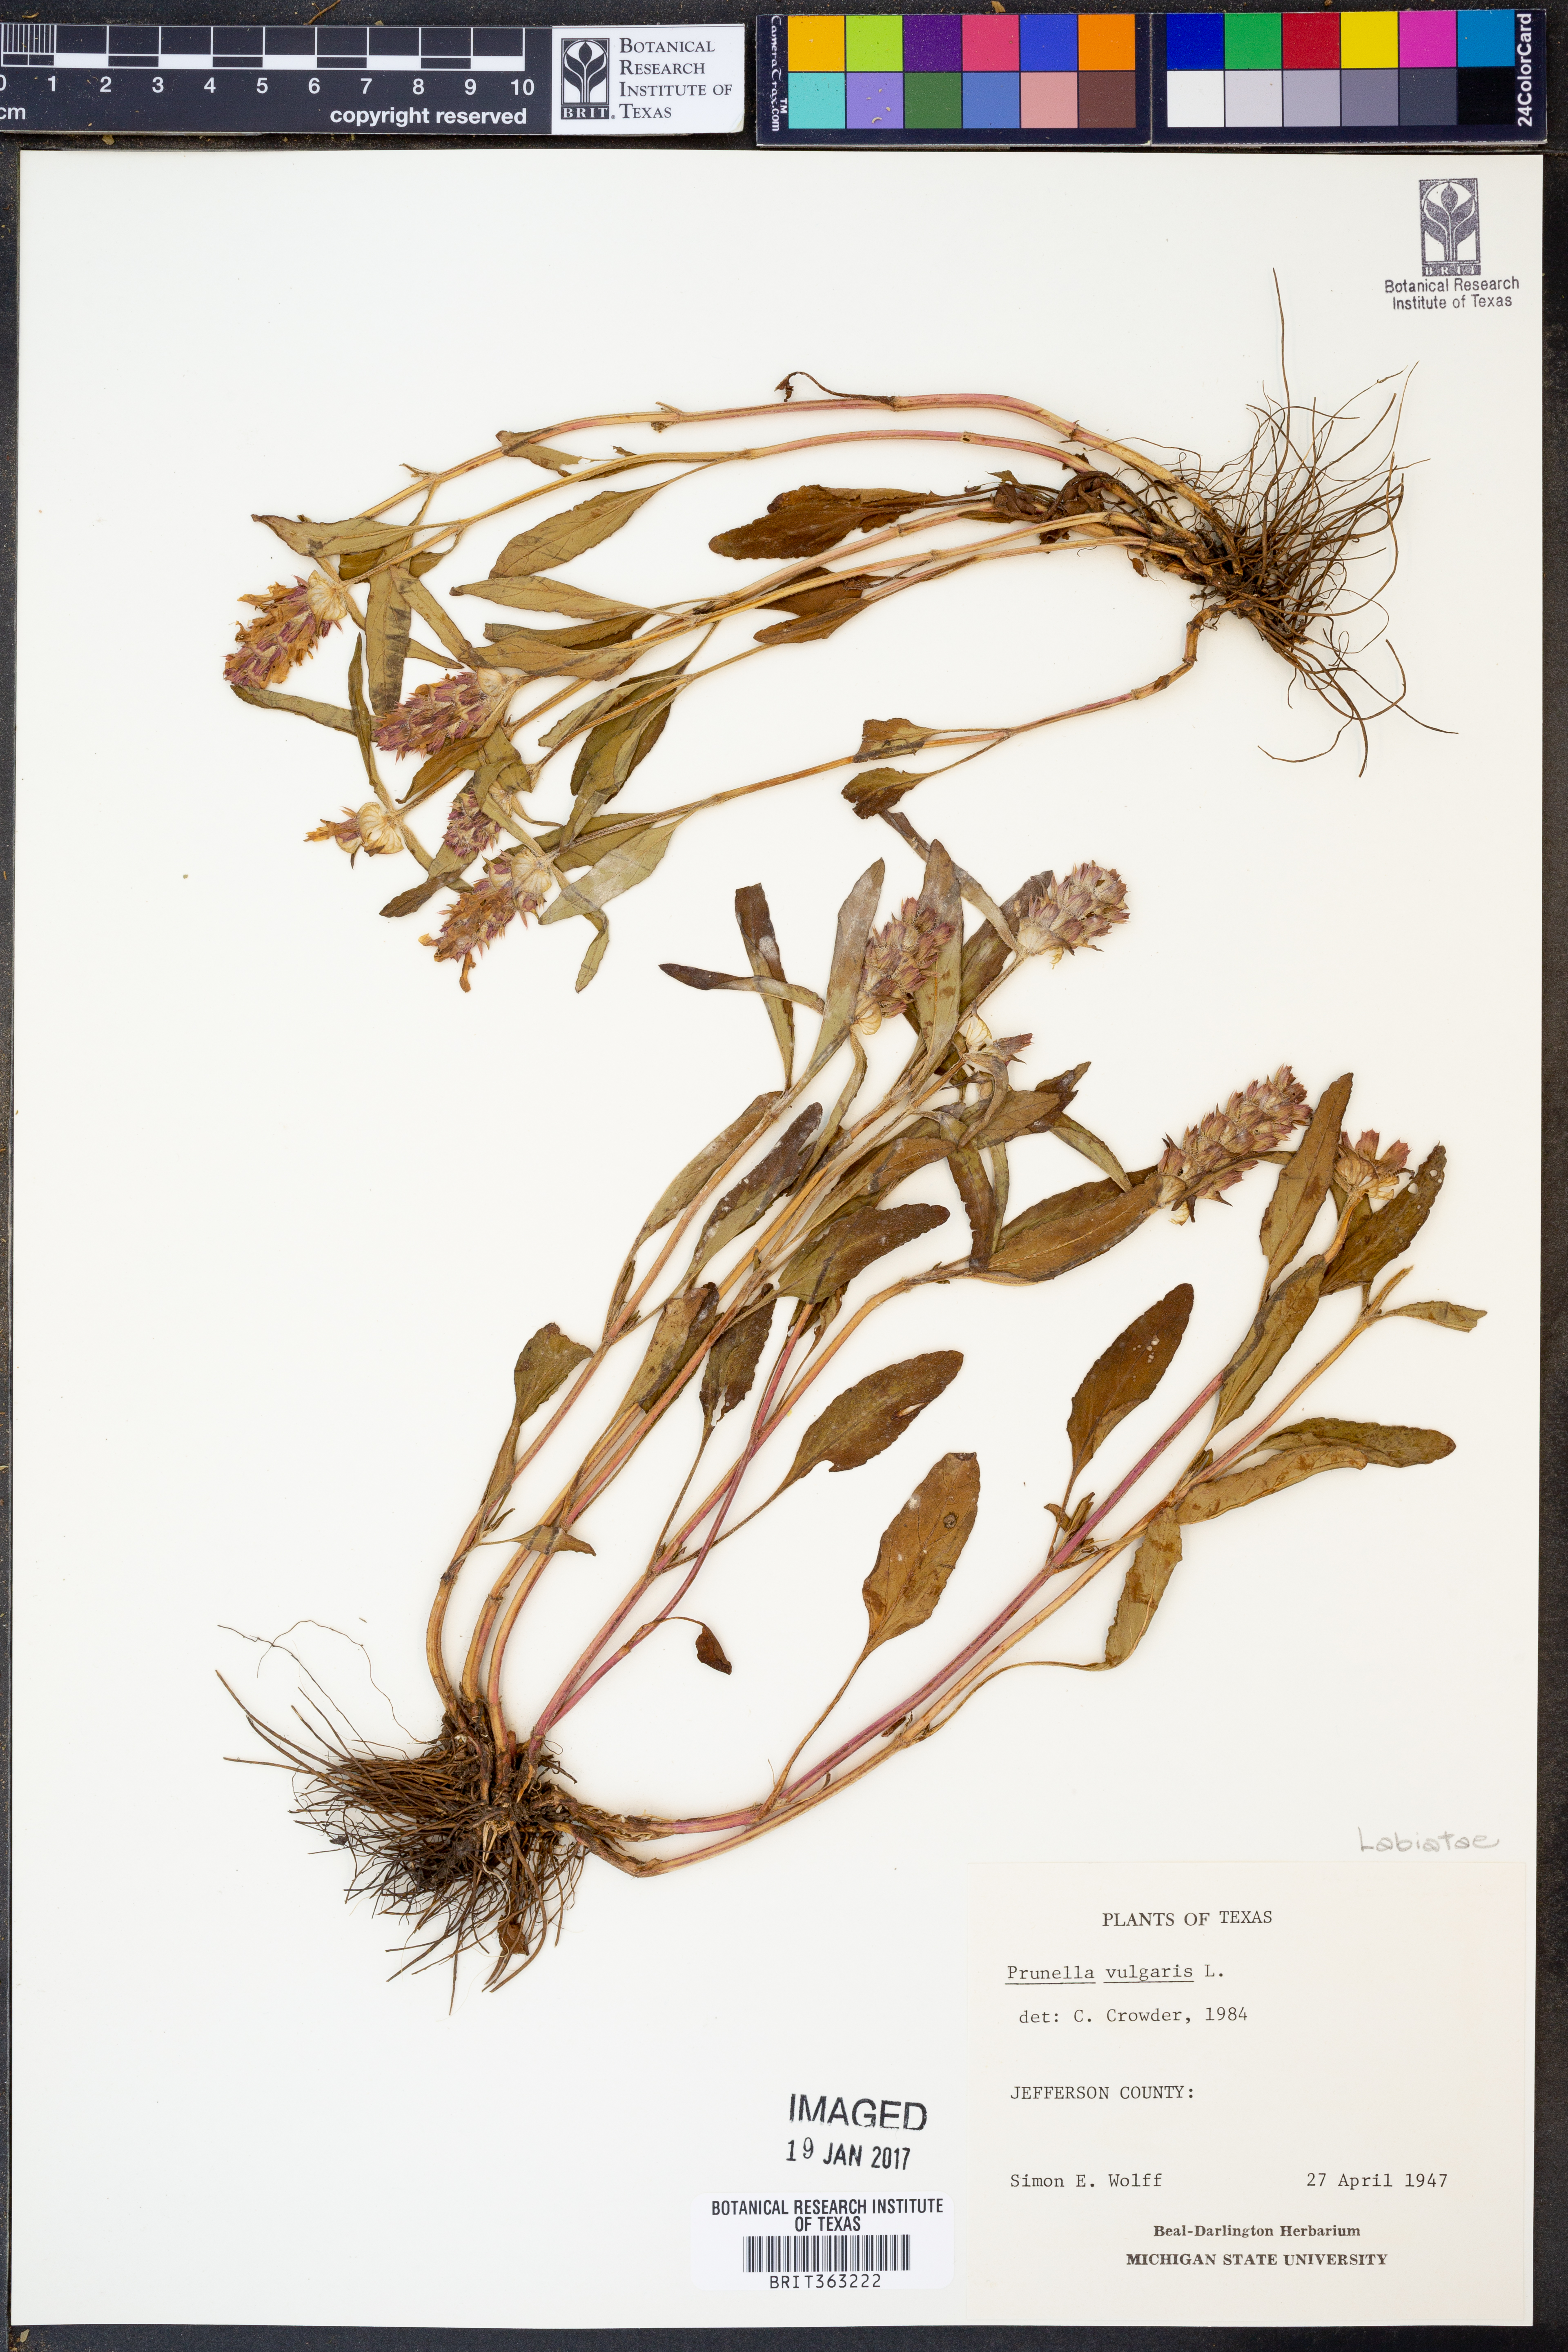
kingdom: Plantae
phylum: Tracheophyta
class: Magnoliopsida
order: Lamiales
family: Lamiaceae
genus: Prunella
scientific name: Prunella vulgaris
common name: Heal-all
